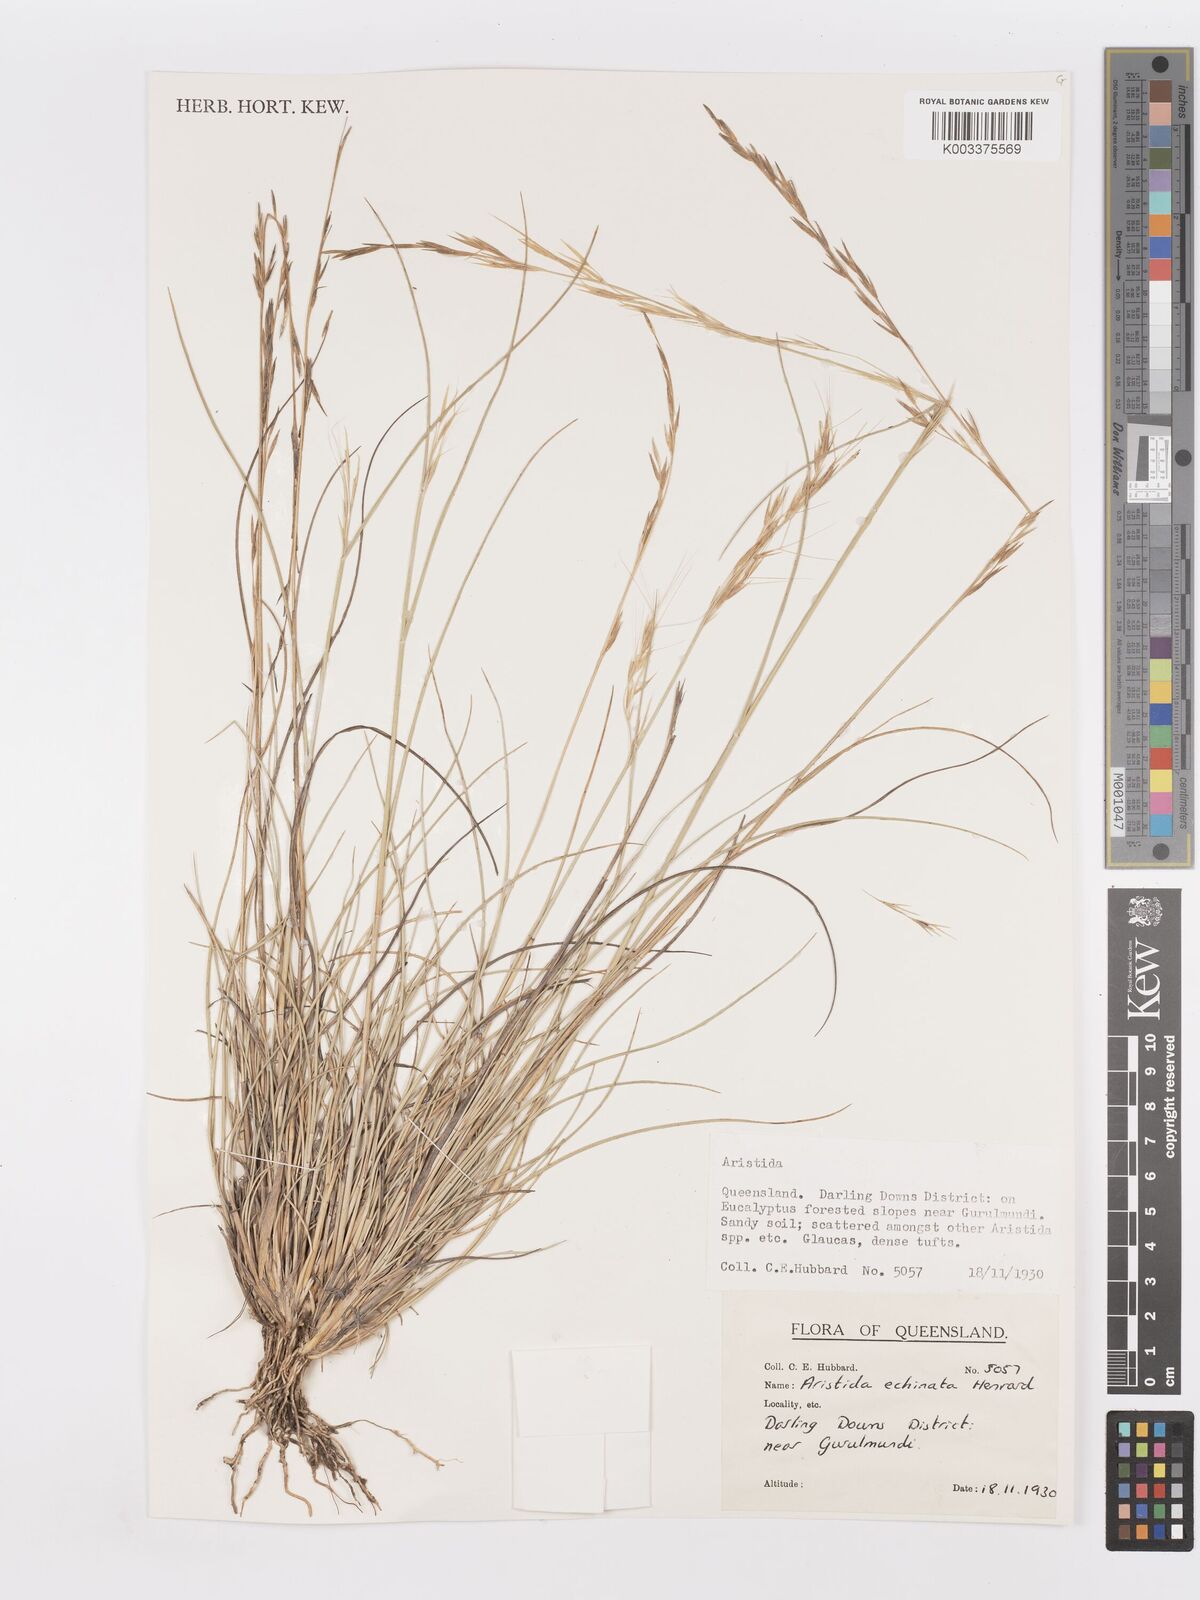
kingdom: Plantae
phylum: Tracheophyta
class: Liliopsida
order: Poales
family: Poaceae
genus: Aristida
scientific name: Aristida echinata
